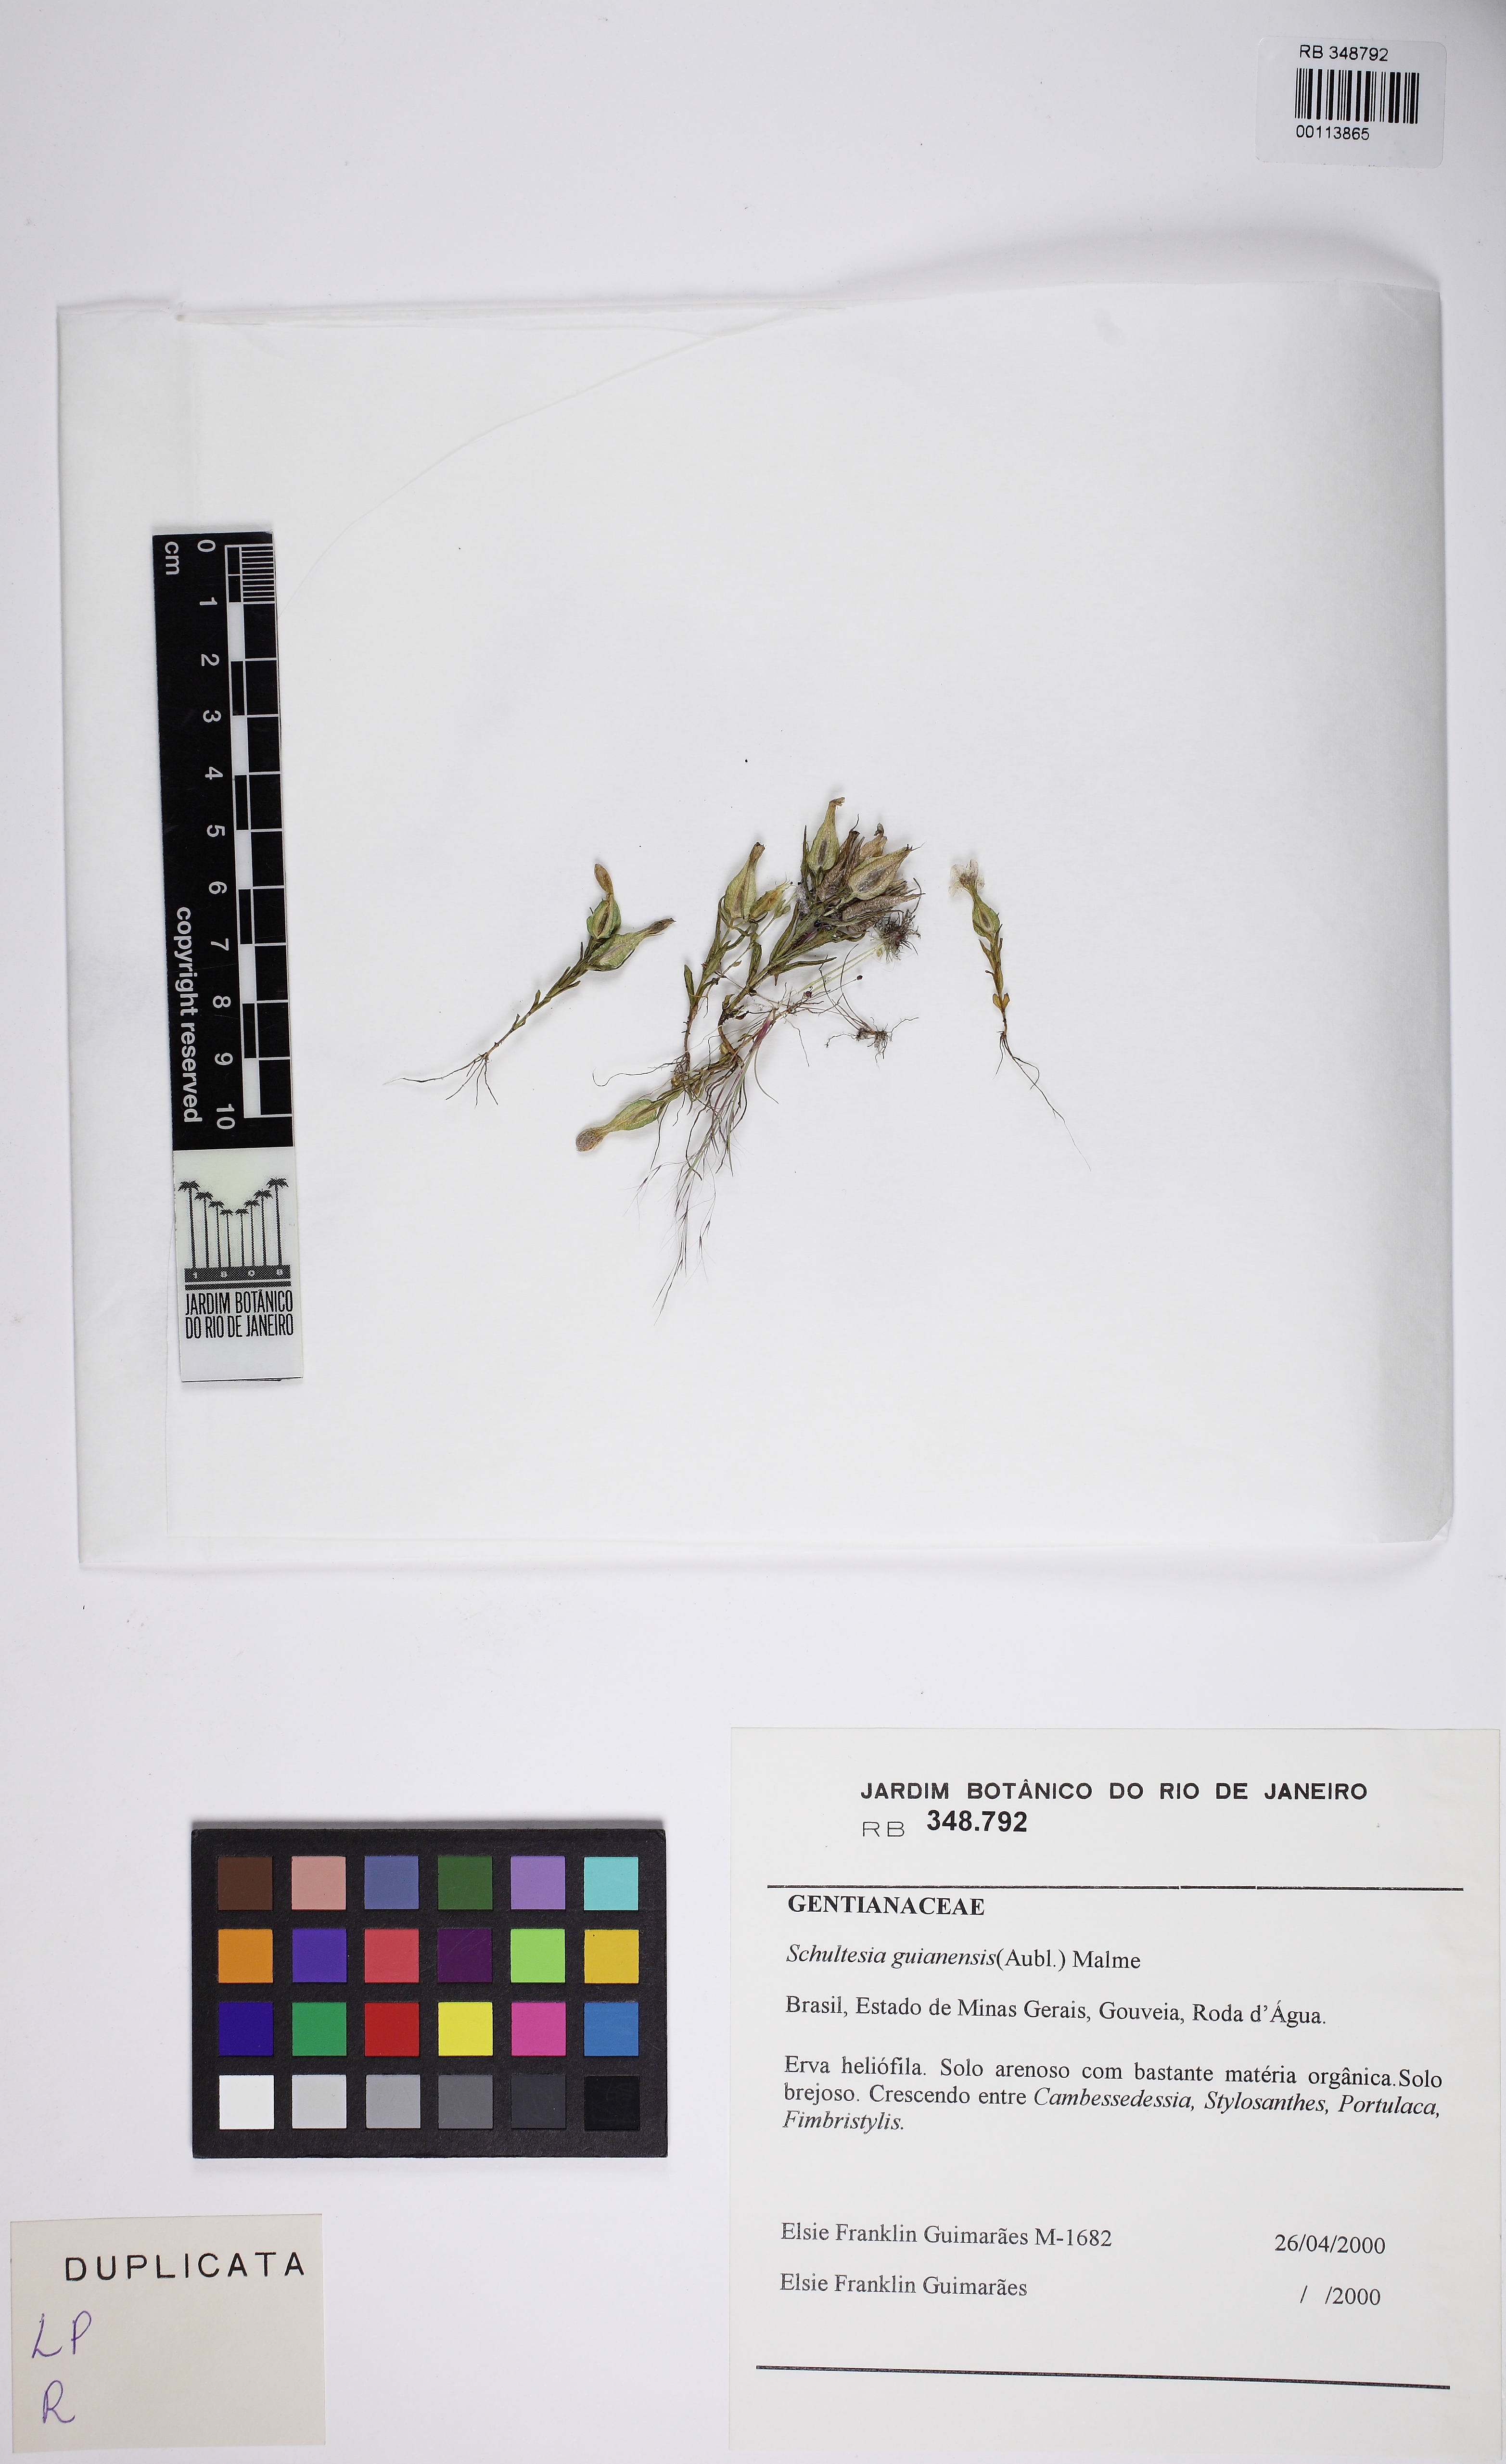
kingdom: Plantae
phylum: Tracheophyta
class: Magnoliopsida
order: Gentianales
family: Gentianaceae
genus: Schultesia
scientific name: Schultesia guianensis
